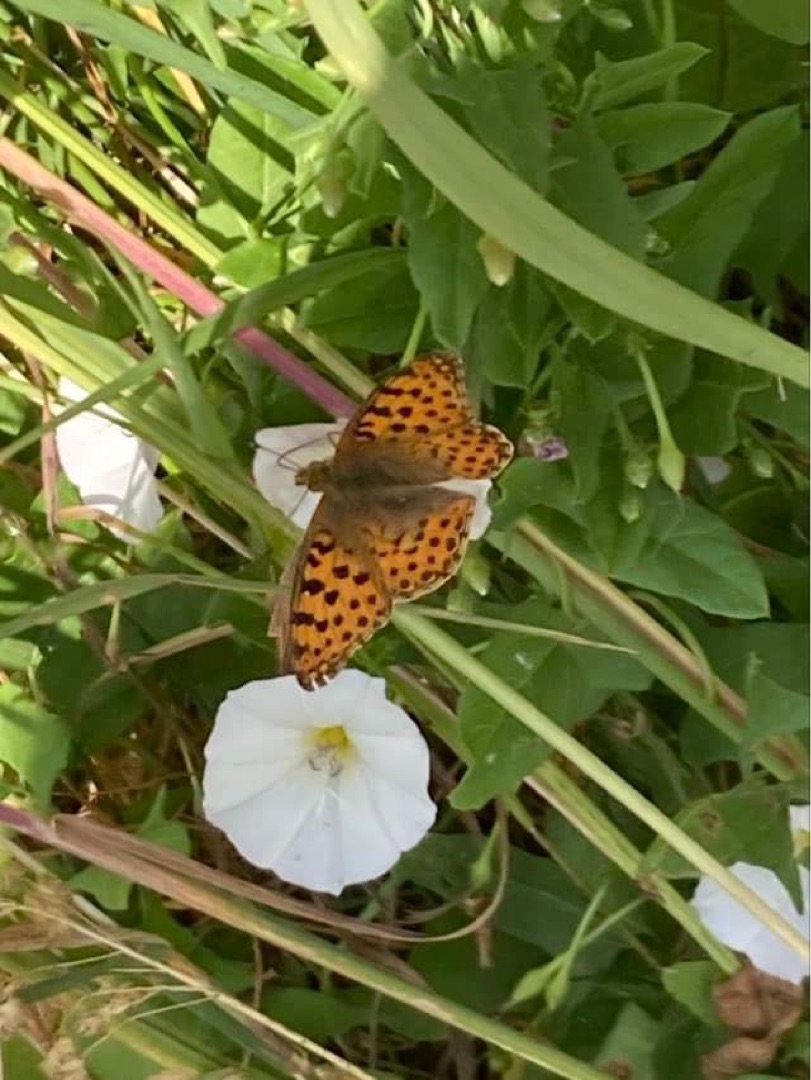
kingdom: Animalia
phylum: Arthropoda
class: Insecta
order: Lepidoptera
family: Nymphalidae
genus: Issoria
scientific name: Issoria lathonia
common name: Storplettet perlemorsommerfugl
